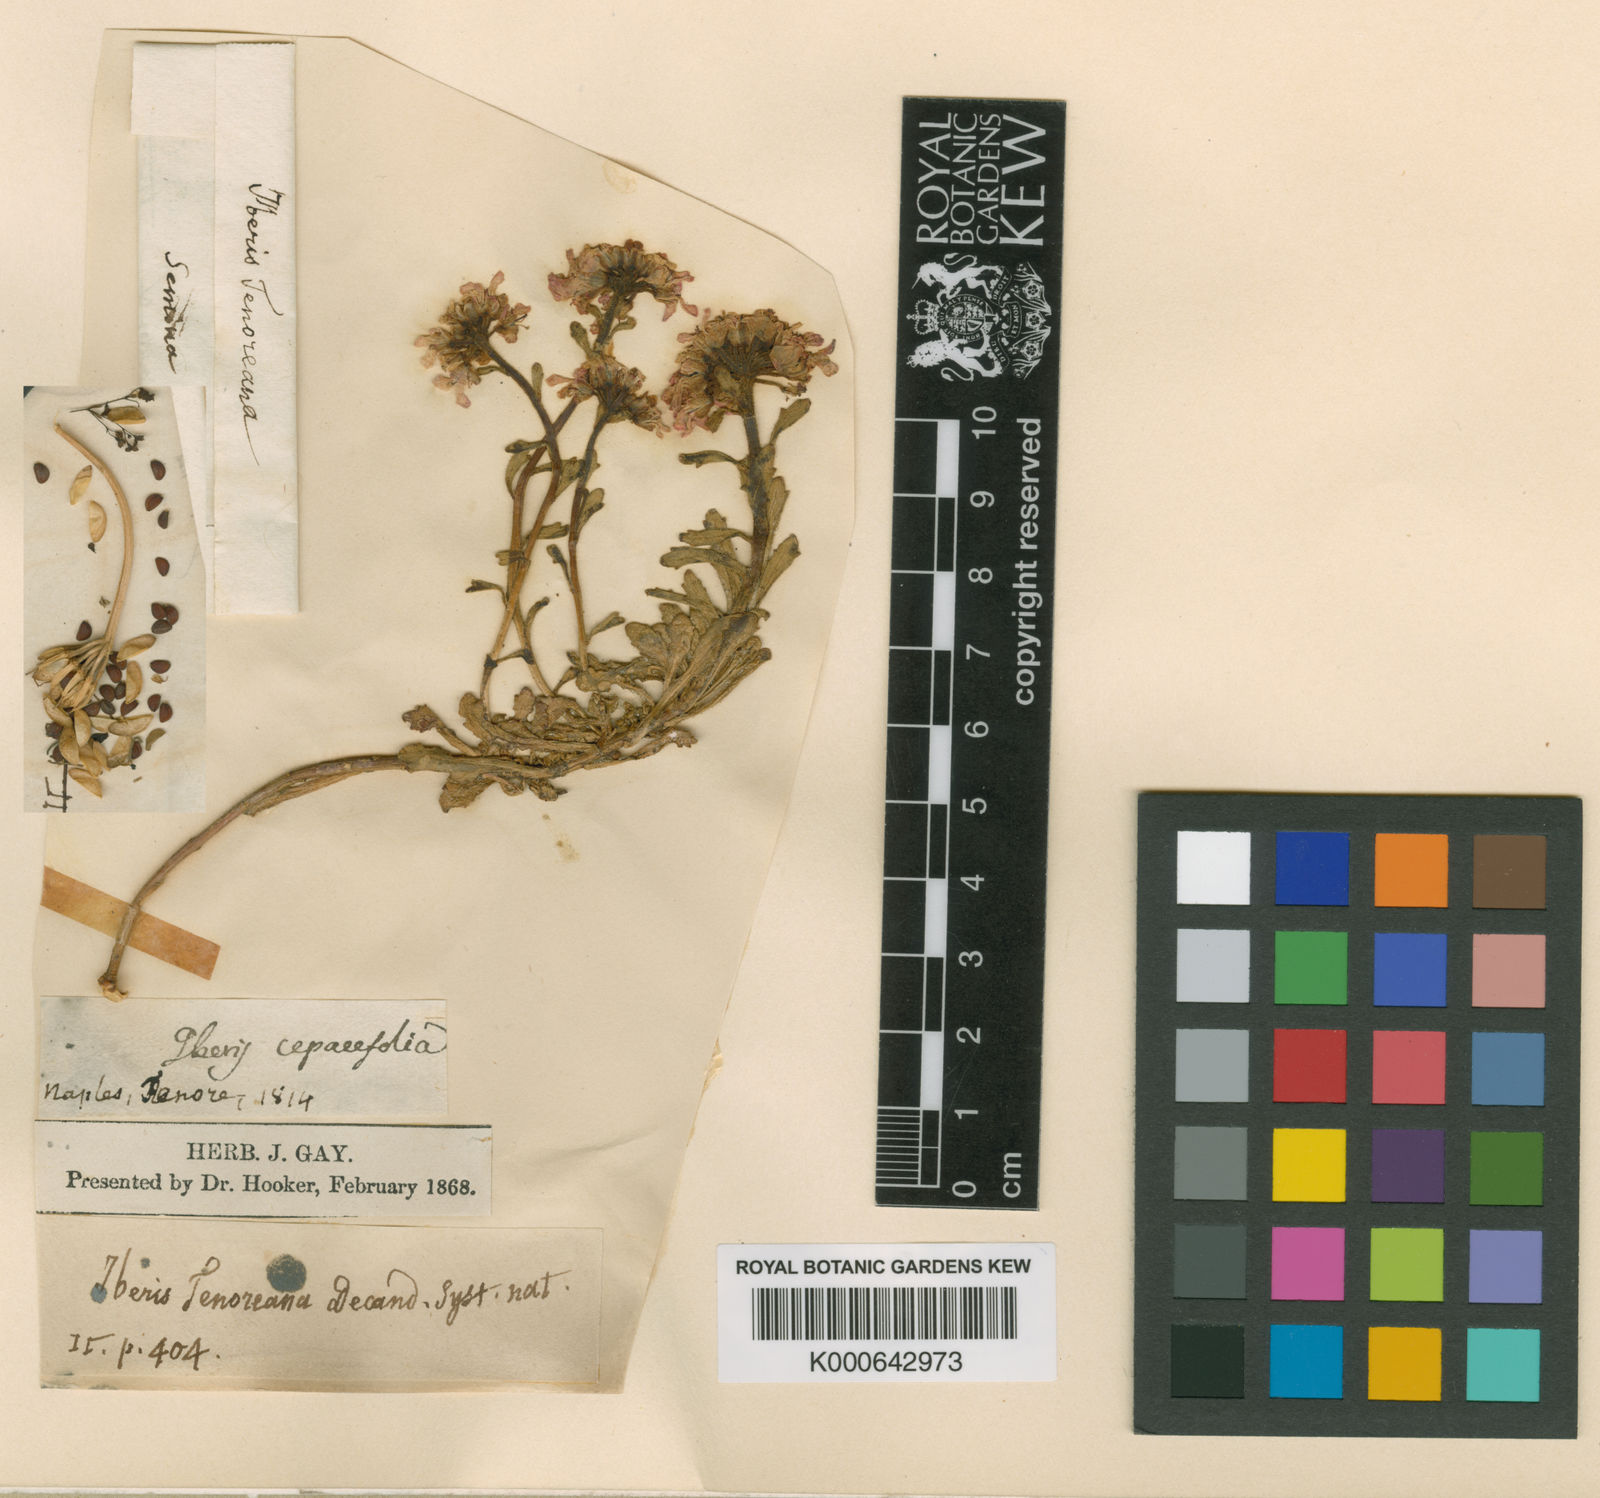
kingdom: Plantae
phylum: Tracheophyta
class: Magnoliopsida
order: Brassicales
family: Brassicaceae
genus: Iberis
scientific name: Iberis carnosa
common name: Pruit's candytuft
